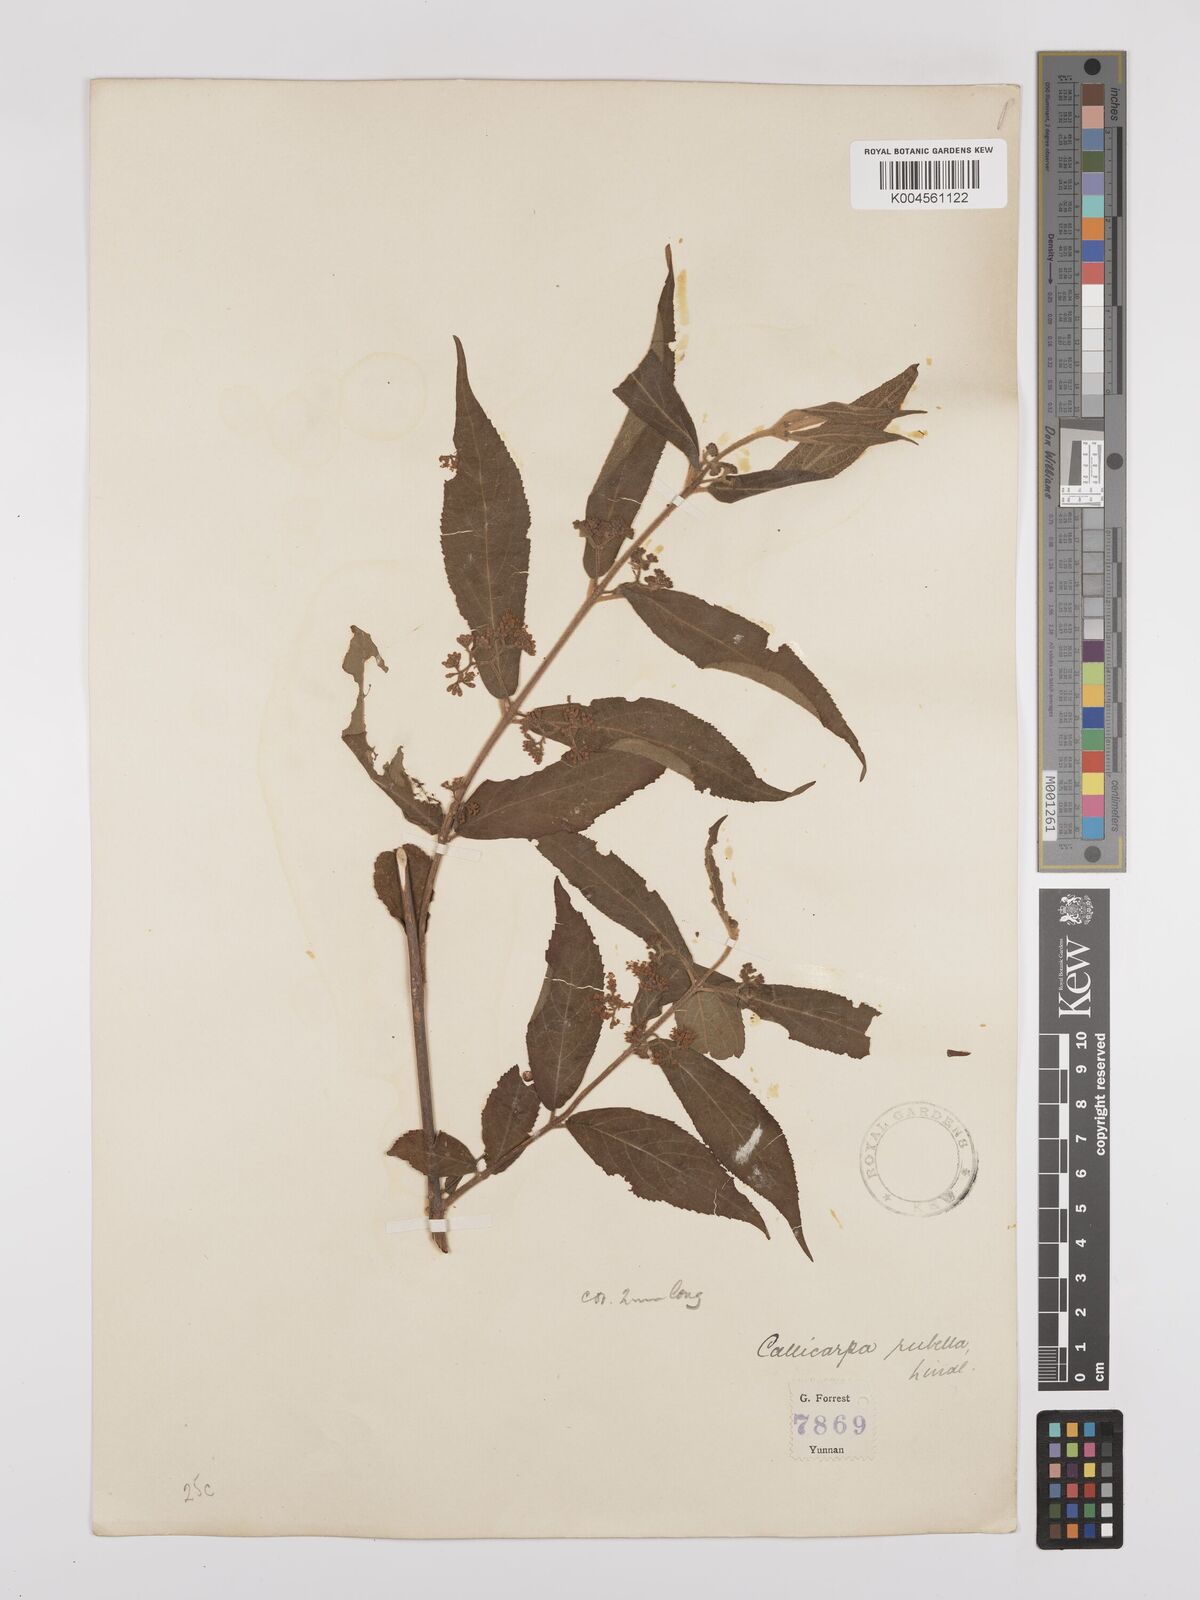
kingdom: Plantae
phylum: Tracheophyta
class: Magnoliopsida
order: Lamiales
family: Lamiaceae
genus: Callicarpa
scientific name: Callicarpa rubella
